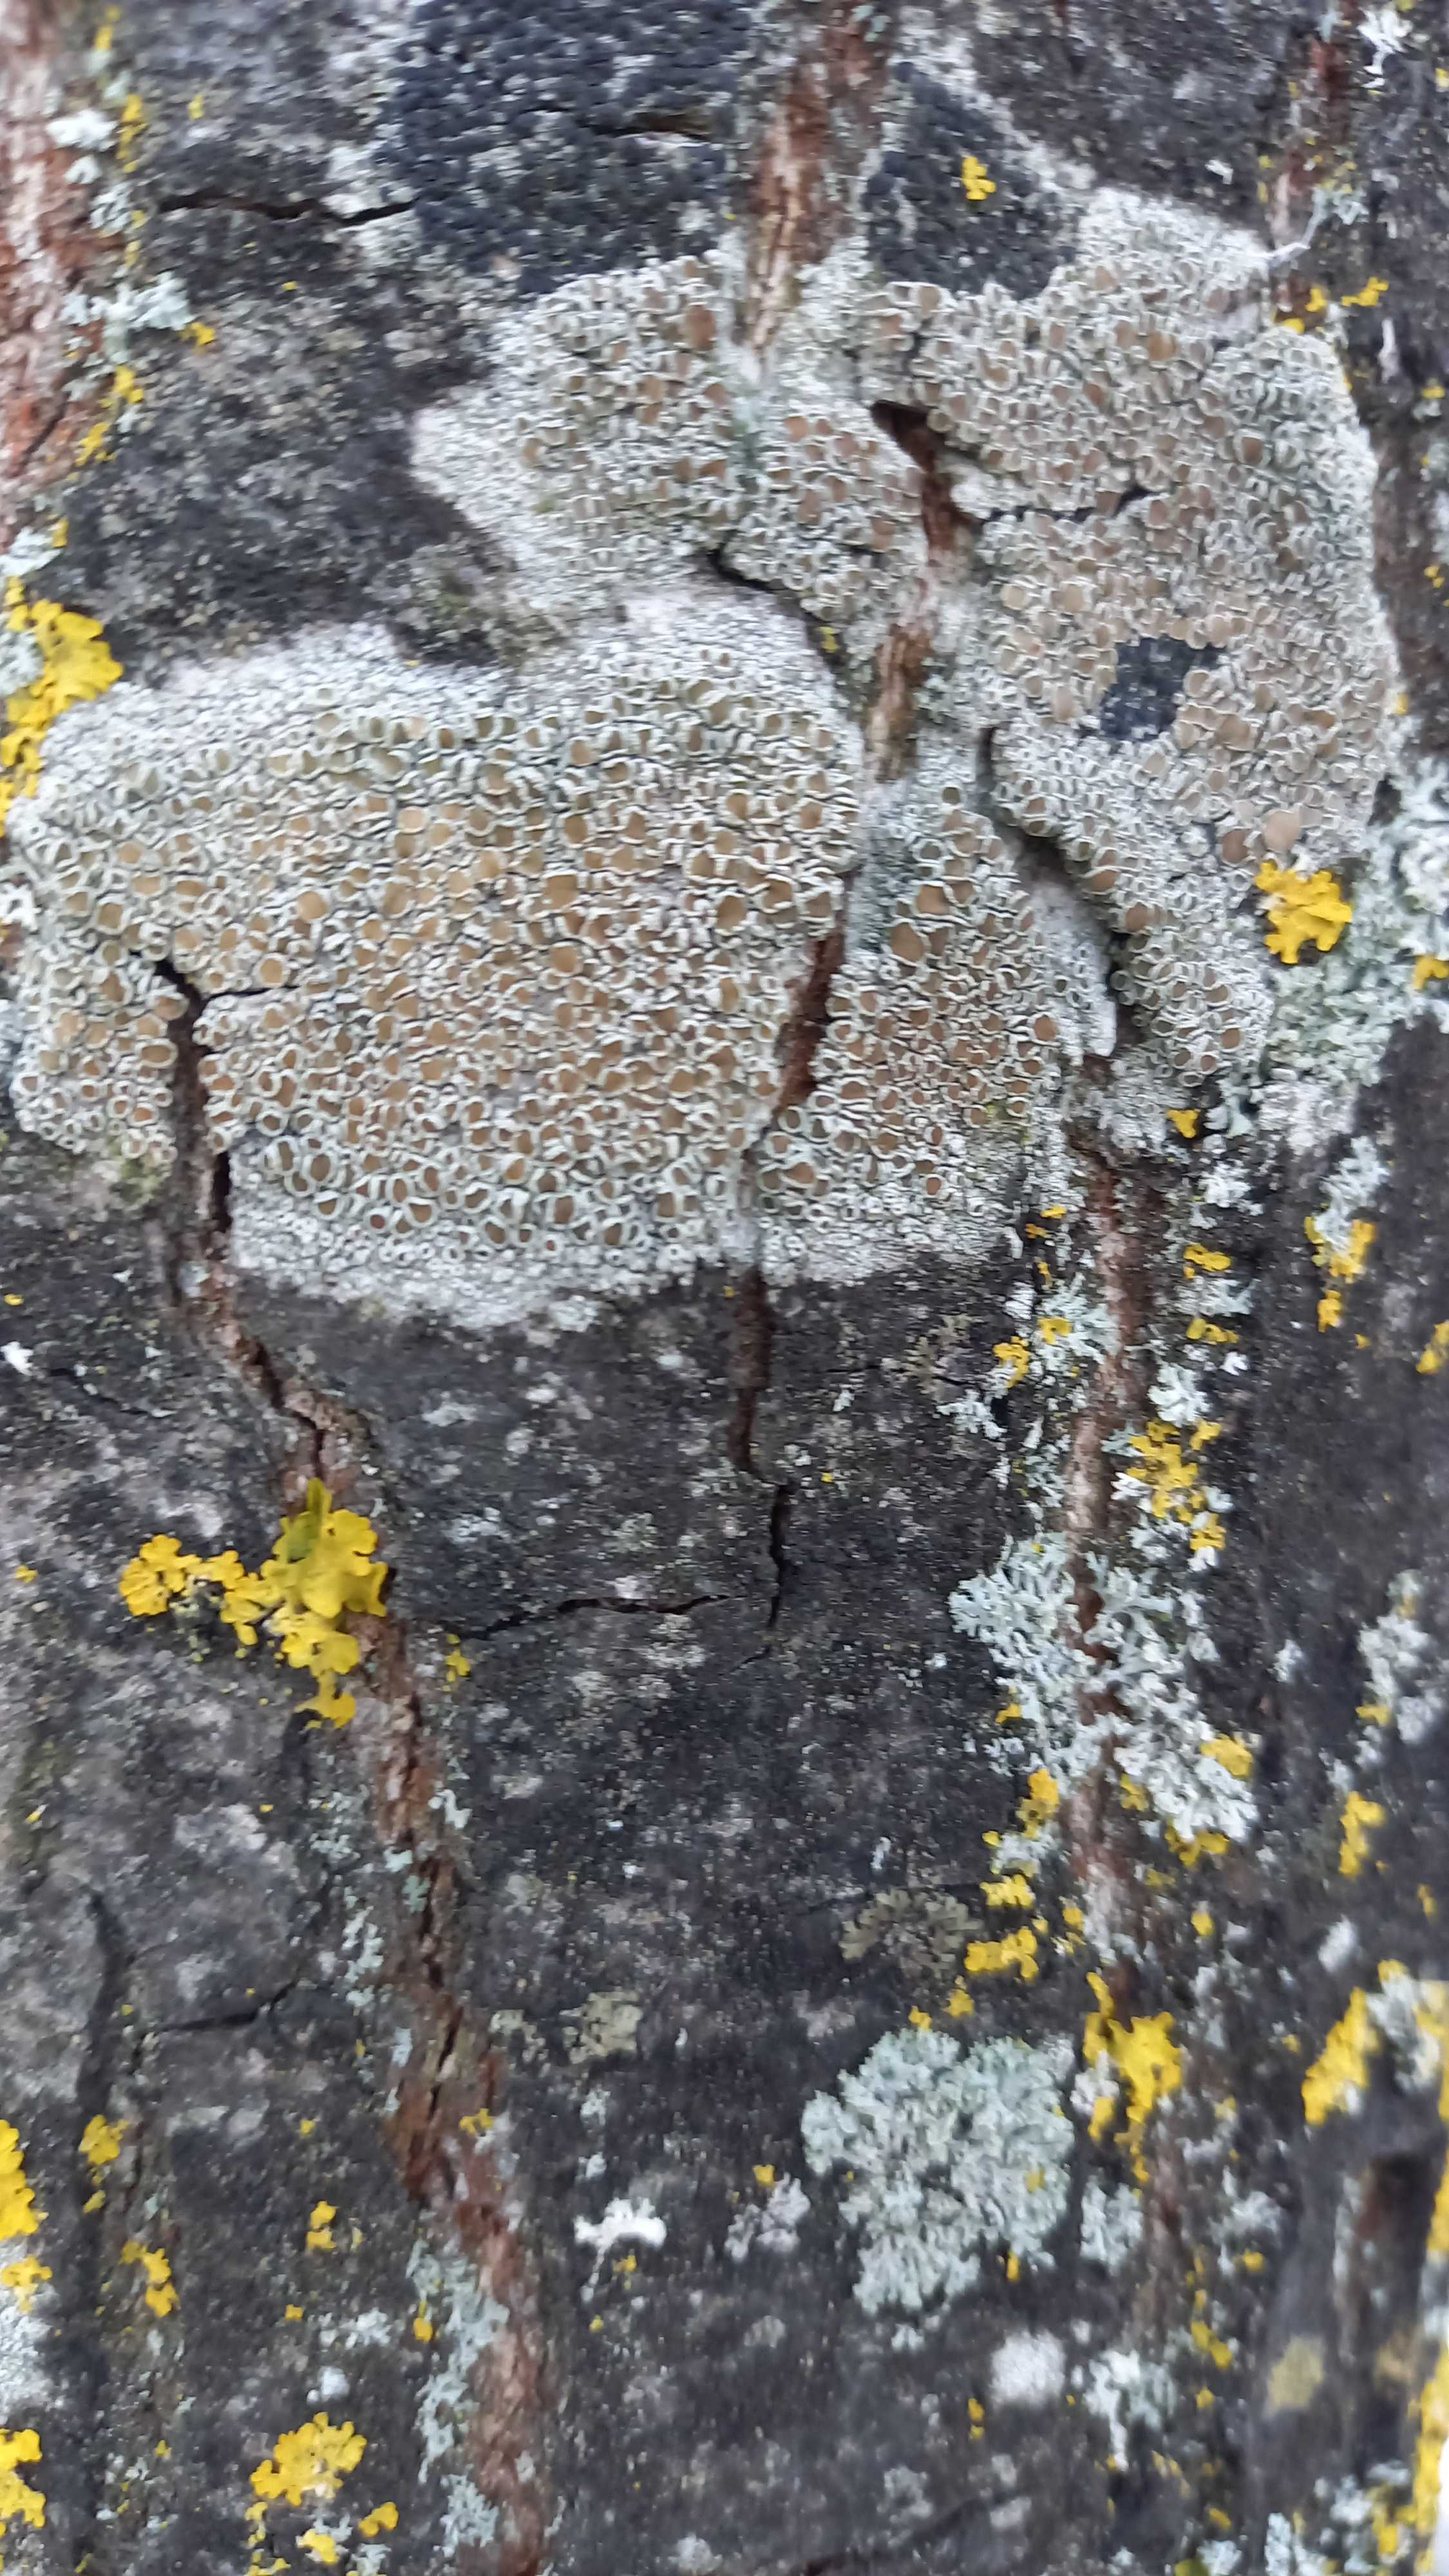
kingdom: Fungi
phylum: Ascomycota
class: Lecanoromycetes
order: Lecanorales
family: Lecanoraceae
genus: Lecanora
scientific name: Lecanora chlarotera
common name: brun kantskivelav
